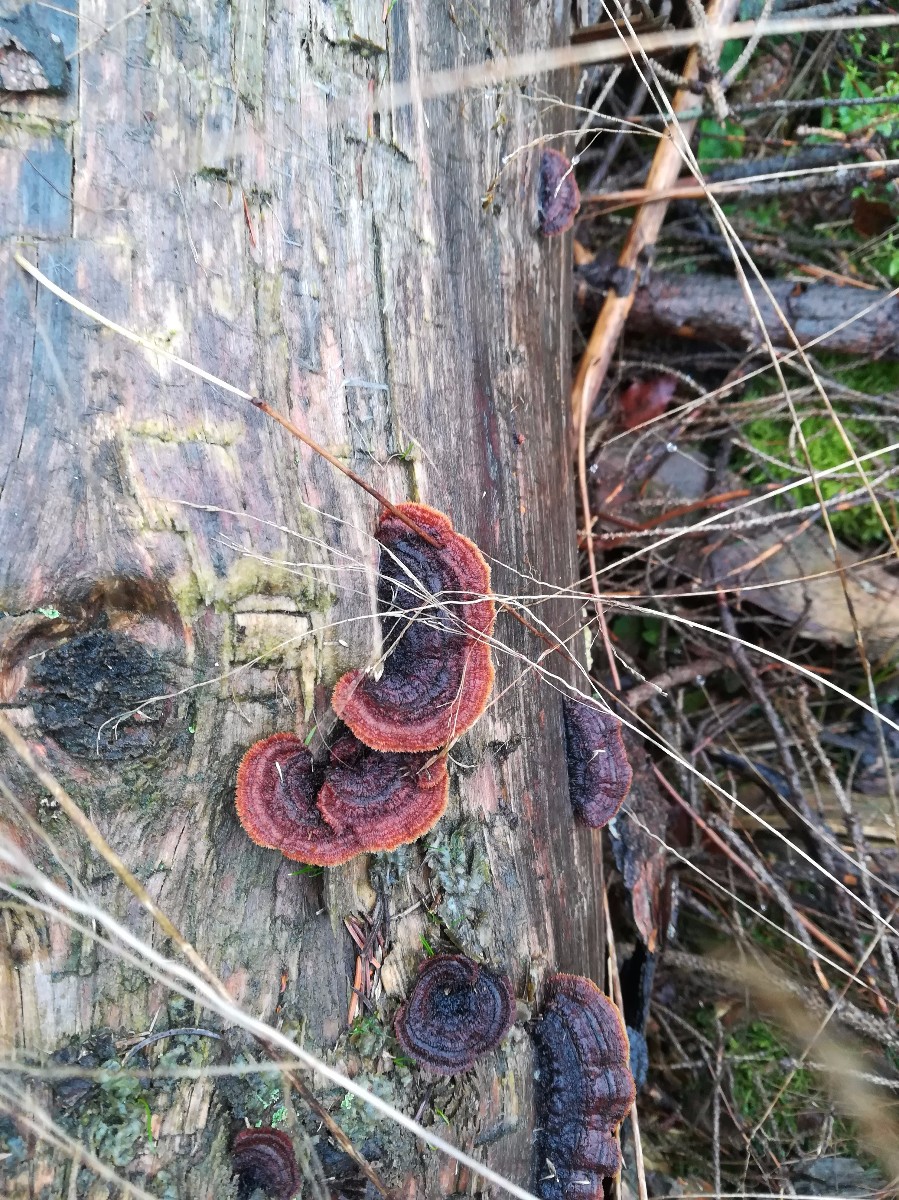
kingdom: Fungi
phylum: Basidiomycota
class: Agaricomycetes
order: Gloeophyllales
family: Gloeophyllaceae
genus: Gloeophyllum
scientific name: Gloeophyllum sepiarium
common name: fyrre-korkhat
